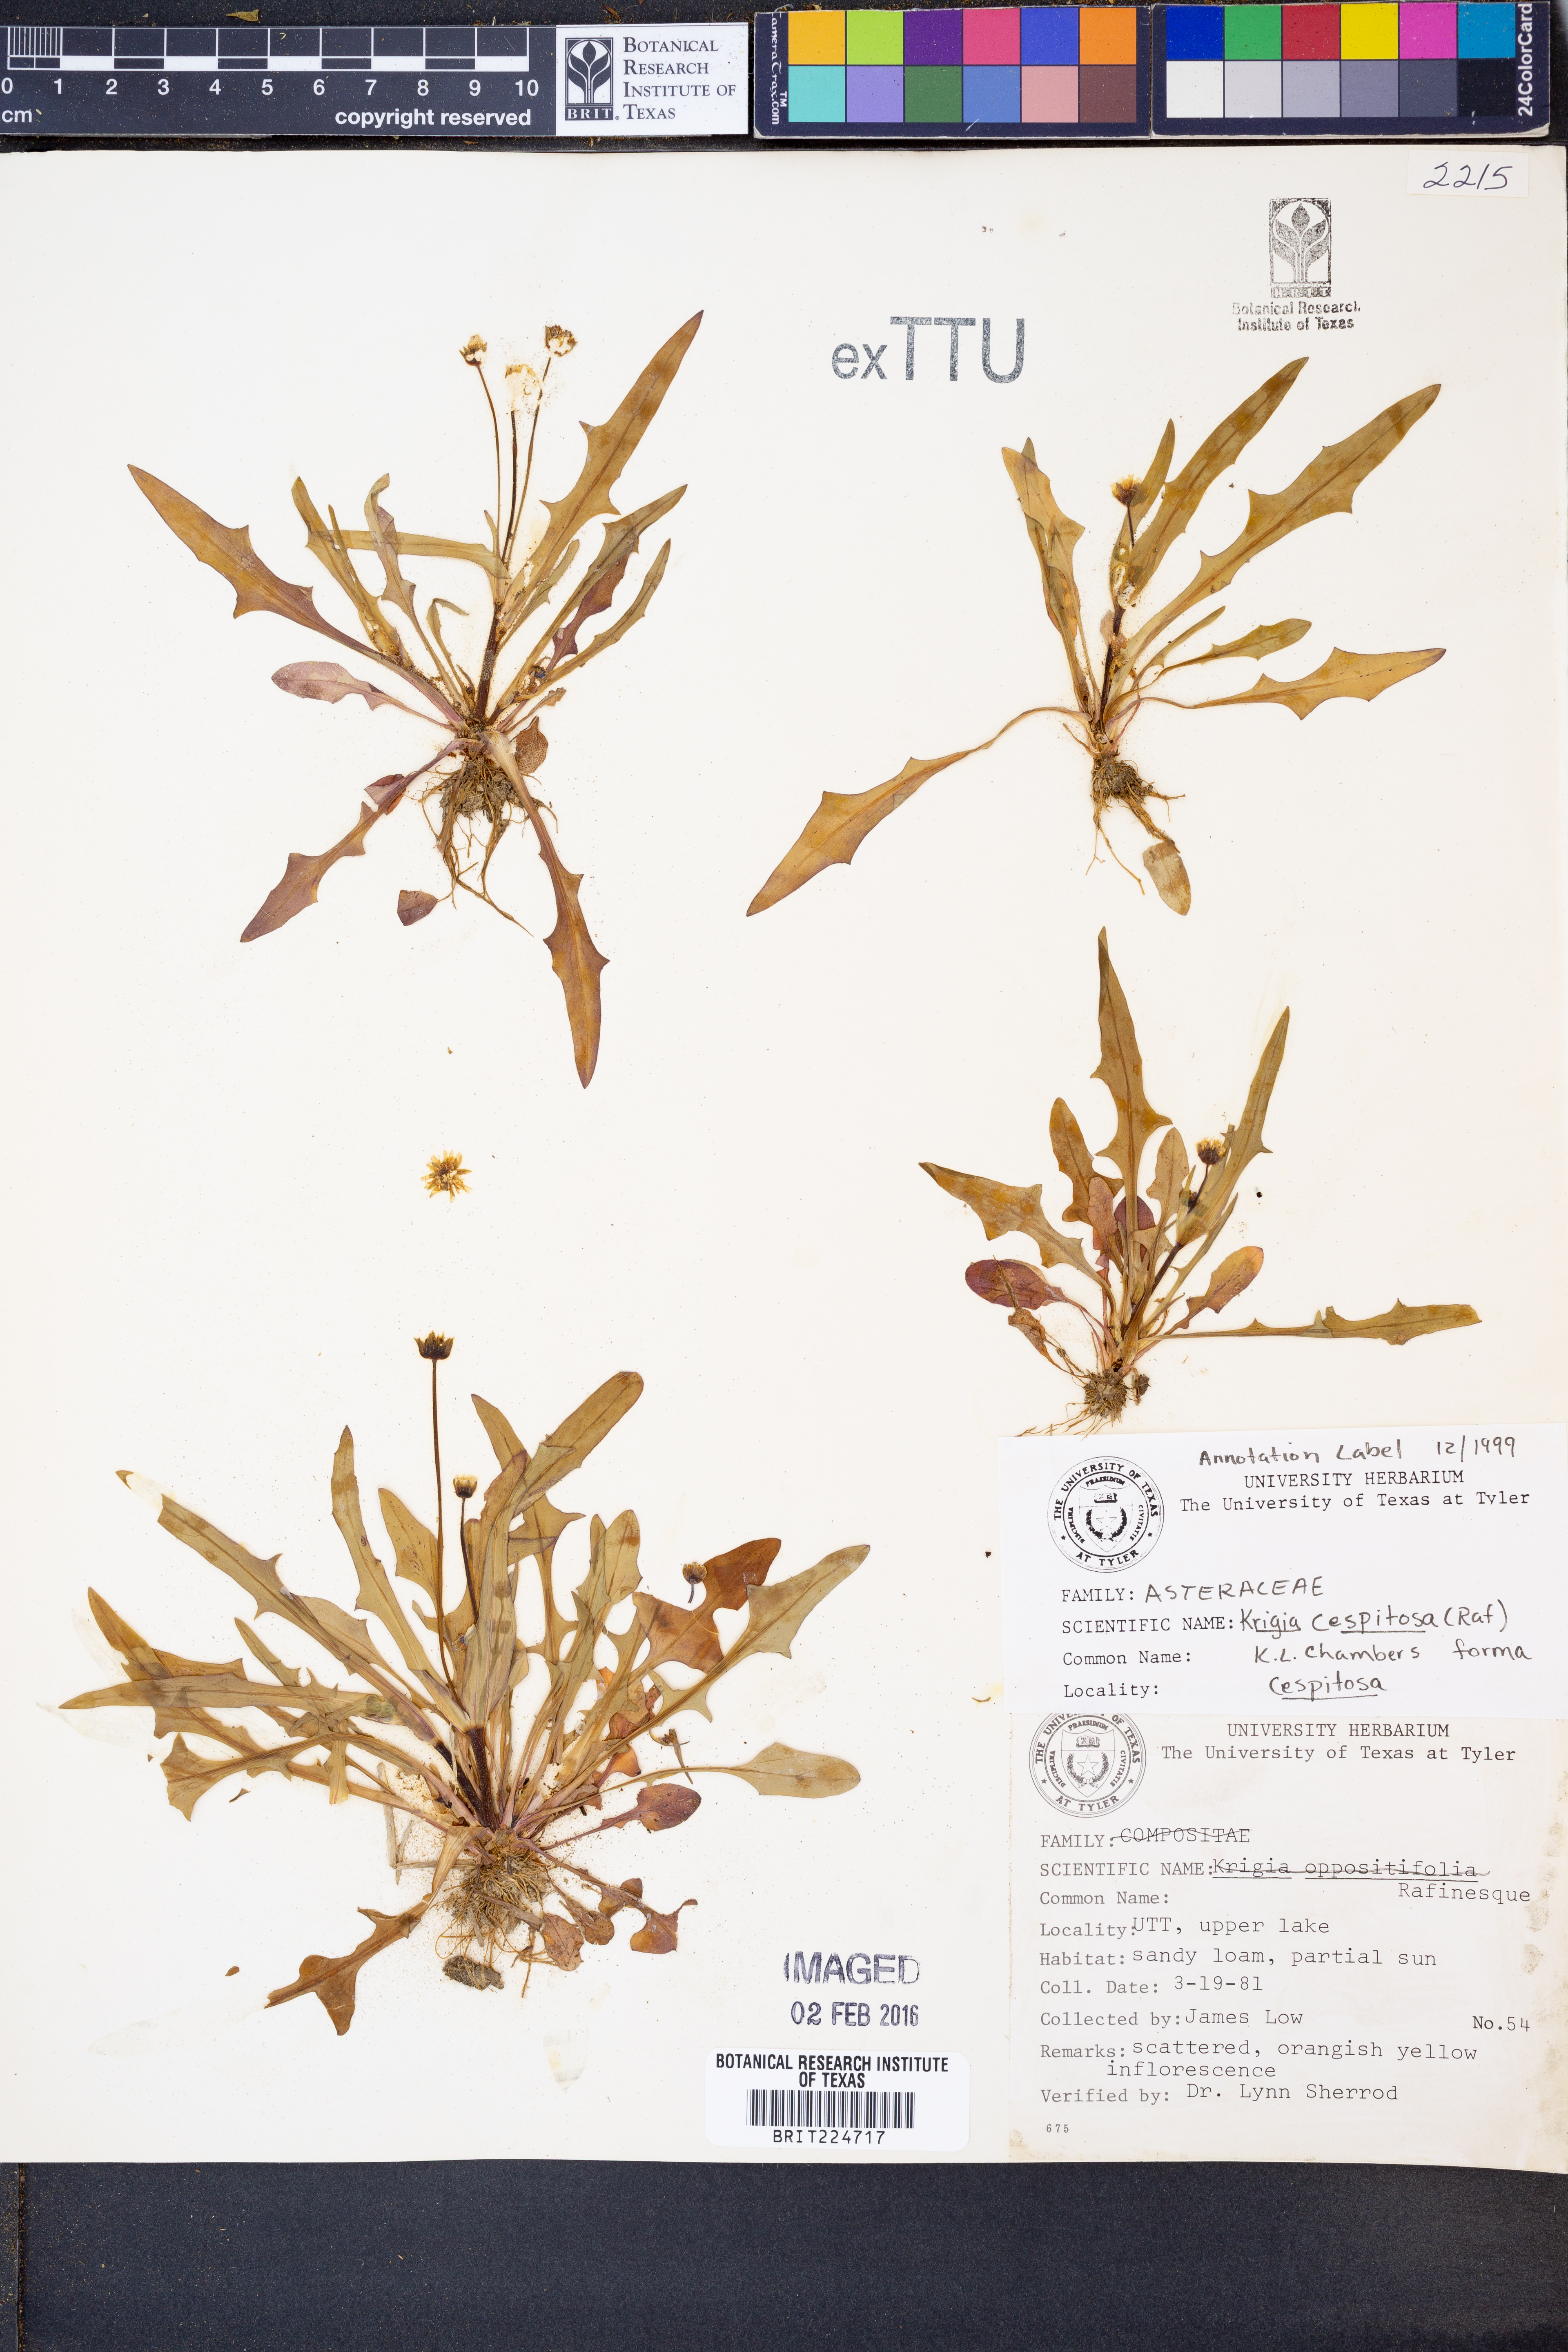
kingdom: Plantae
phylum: Tracheophyta
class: Magnoliopsida
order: Asterales
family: Asteraceae
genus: Krigia
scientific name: Krigia cespitosa
